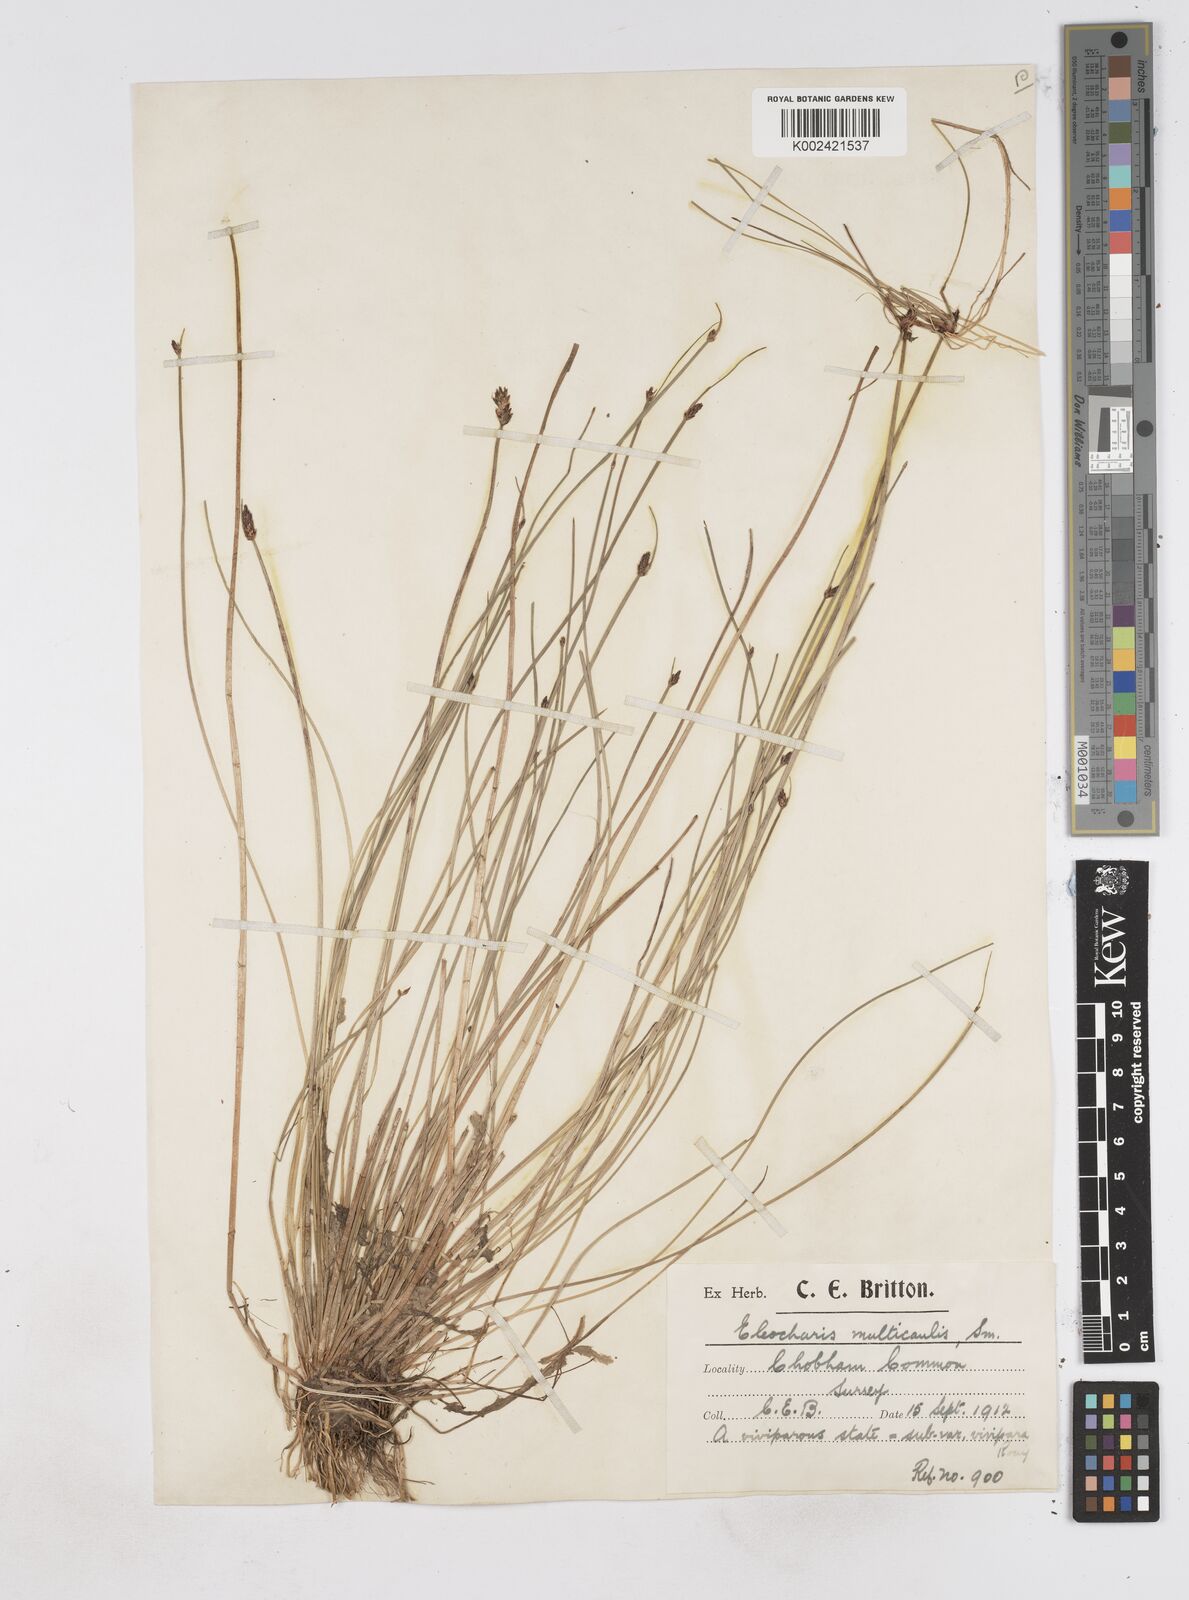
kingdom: Plantae
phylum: Tracheophyta
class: Liliopsida
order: Poales
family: Cyperaceae
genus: Eleocharis
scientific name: Eleocharis multicaulis
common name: Many-stalked spike-rush
